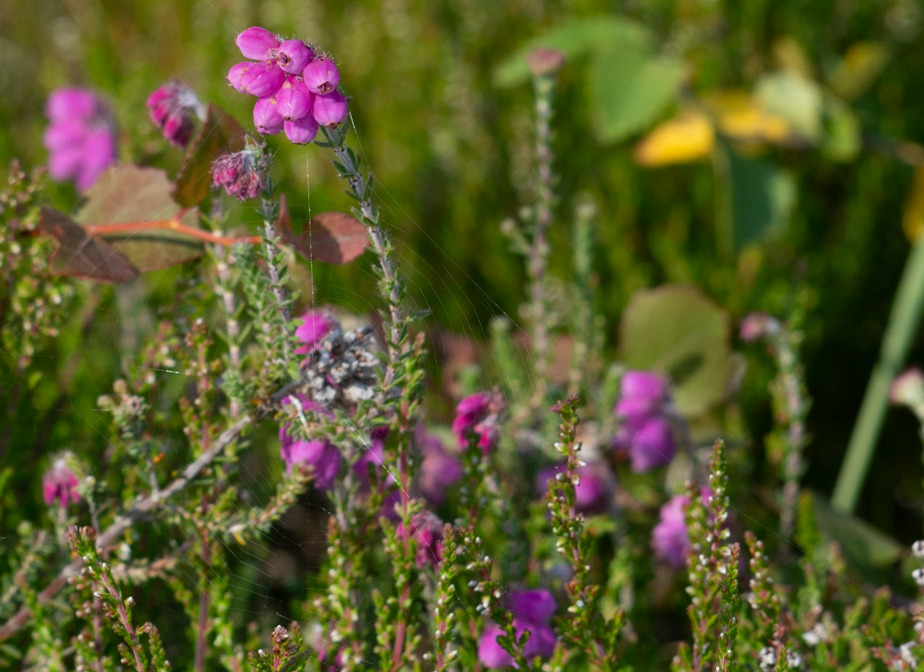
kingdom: Plantae
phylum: Tracheophyta
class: Magnoliopsida
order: Ericales
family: Ericaceae
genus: Erica
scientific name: Erica tetralix
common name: Klokkelyng
